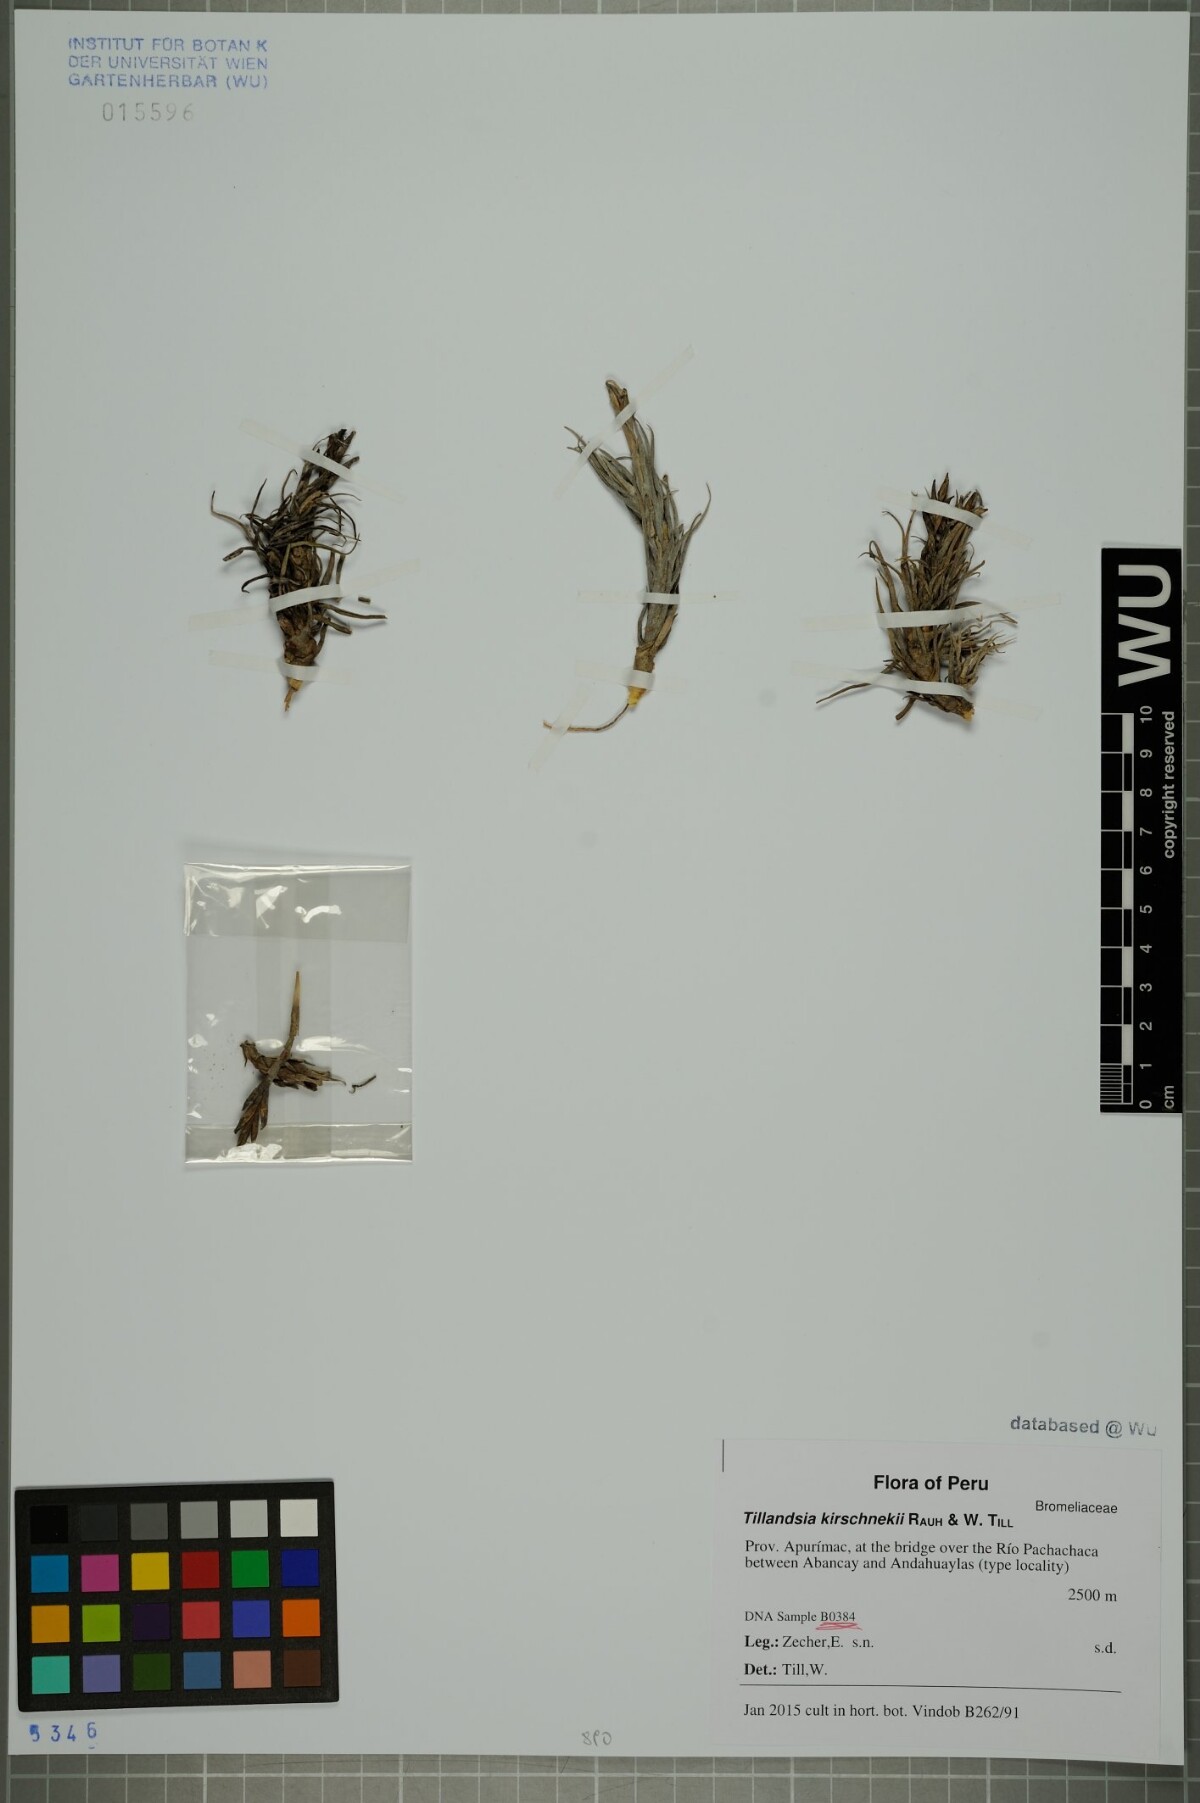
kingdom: Plantae
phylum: Tracheophyta
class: Liliopsida
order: Poales
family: Bromeliaceae
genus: Tillandsia
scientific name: Tillandsia kirschnekii
